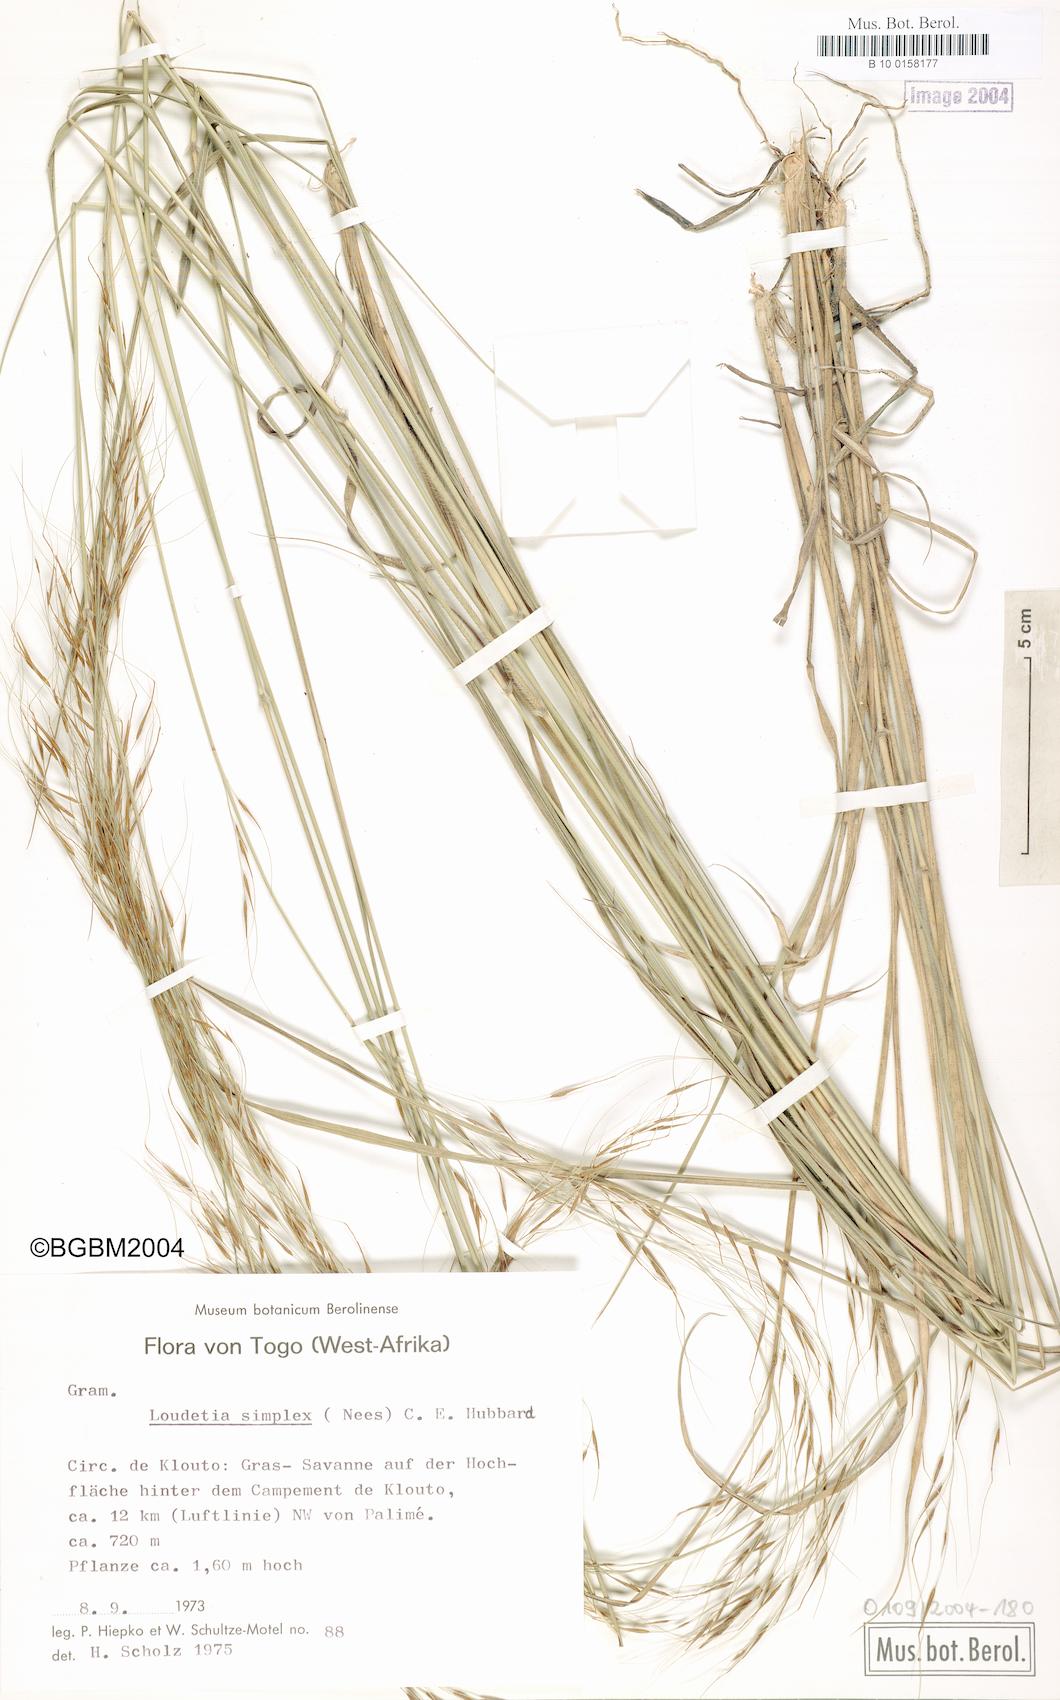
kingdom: Plantae
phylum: Tracheophyta
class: Liliopsida
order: Poales
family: Poaceae
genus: Loudetia
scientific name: Loudetia simplex
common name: Common russet grass
